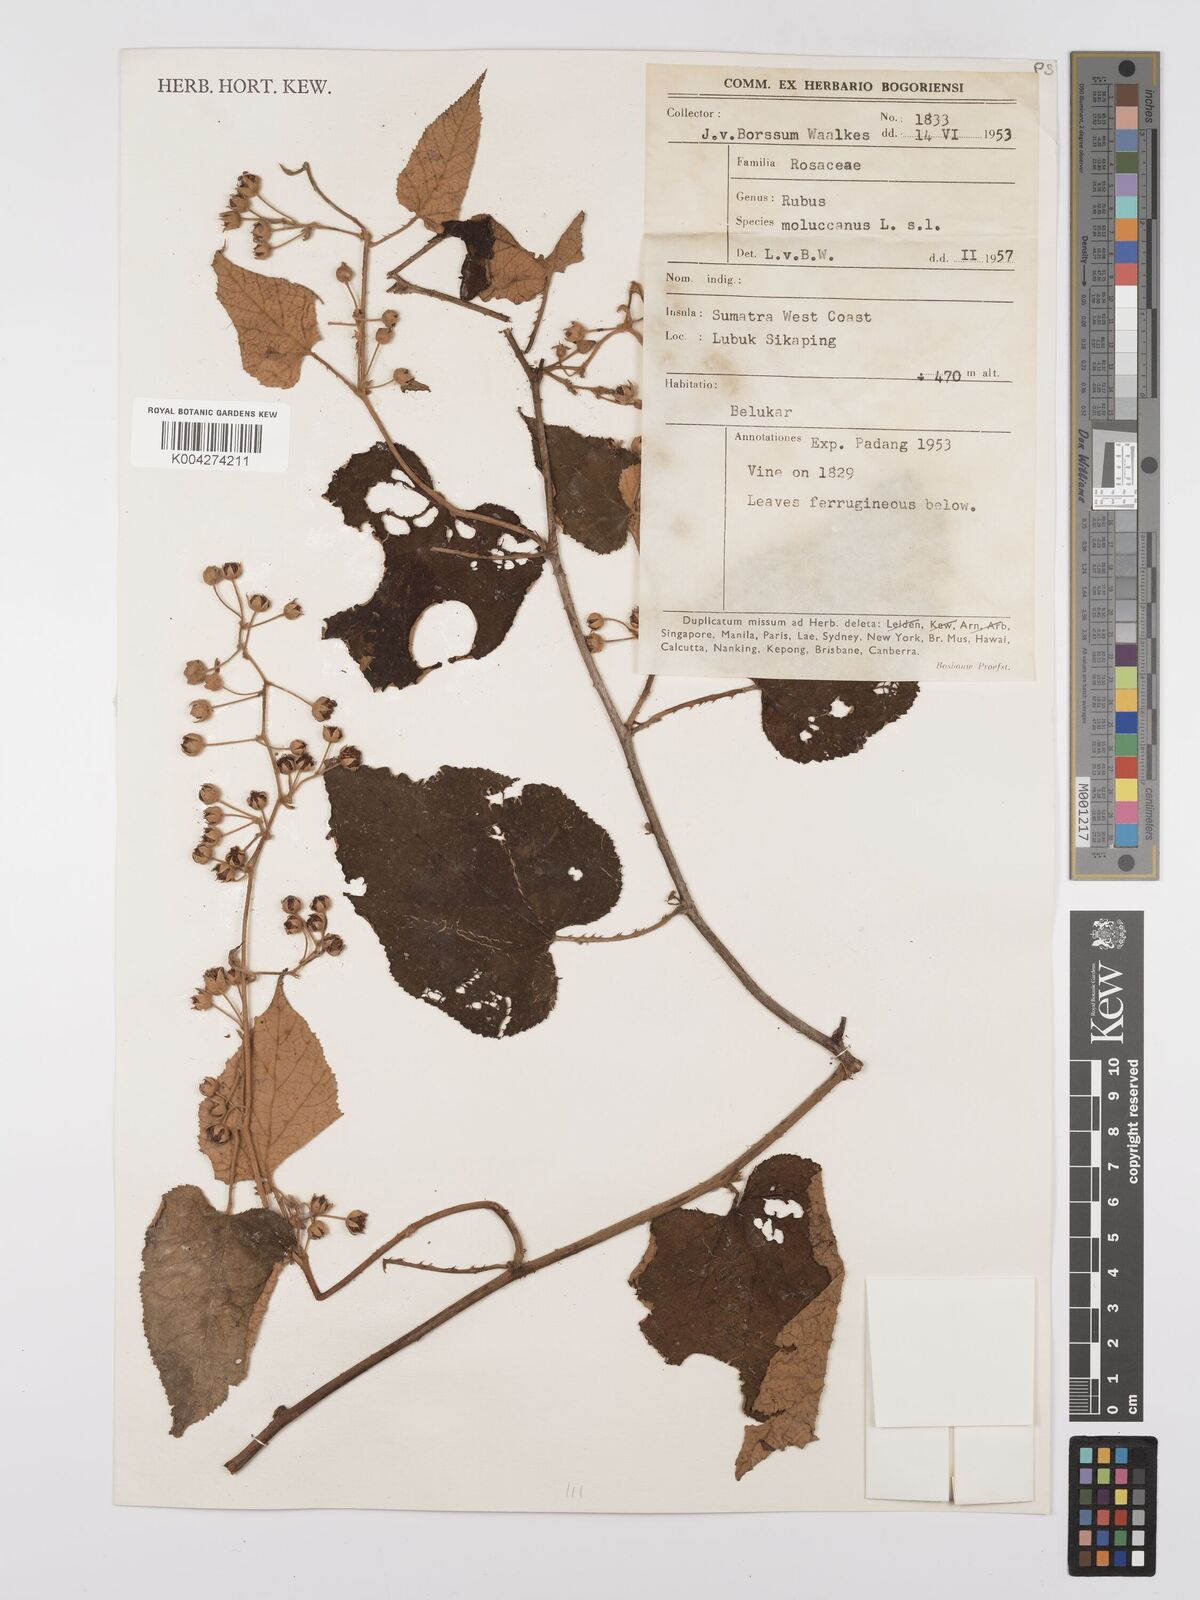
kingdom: Plantae
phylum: Tracheophyta
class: Magnoliopsida
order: Rosales
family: Rosaceae
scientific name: Rosaceae
